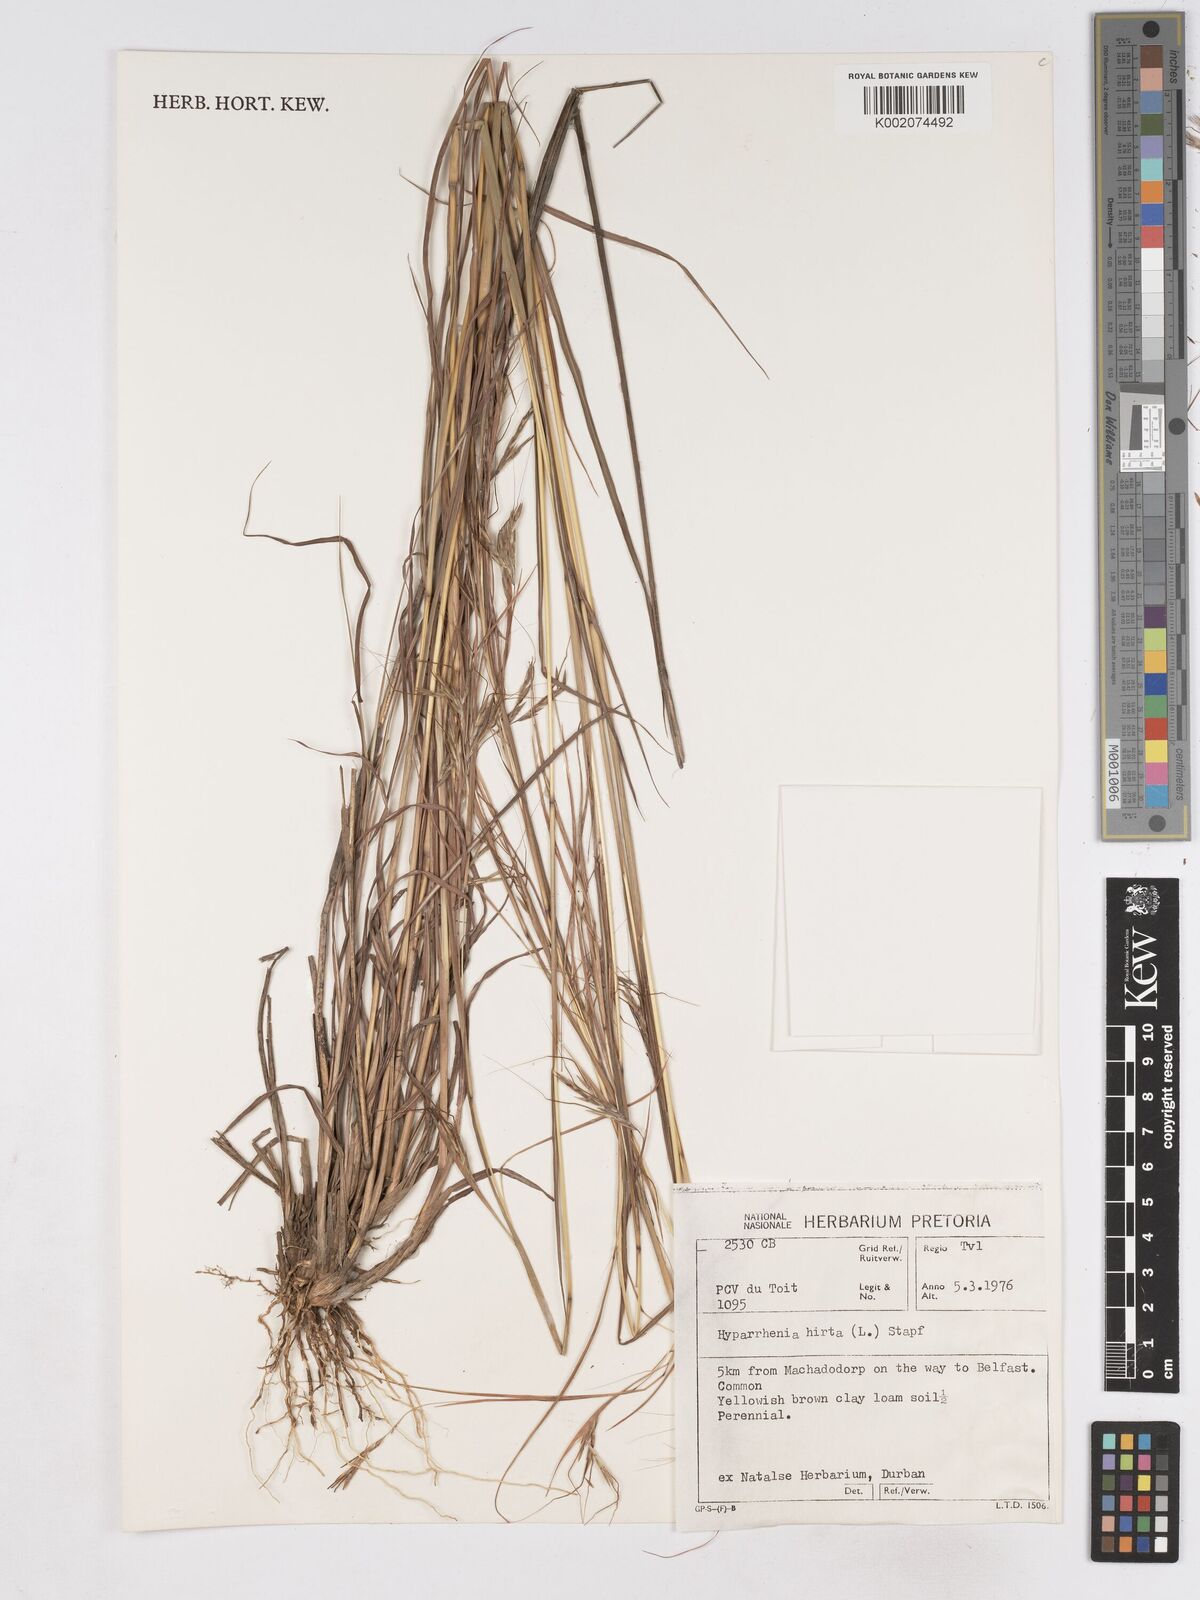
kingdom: Plantae
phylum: Tracheophyta
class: Liliopsida
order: Poales
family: Poaceae
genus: Hyparrhenia
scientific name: Hyparrhenia hirta
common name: Thatching grass
